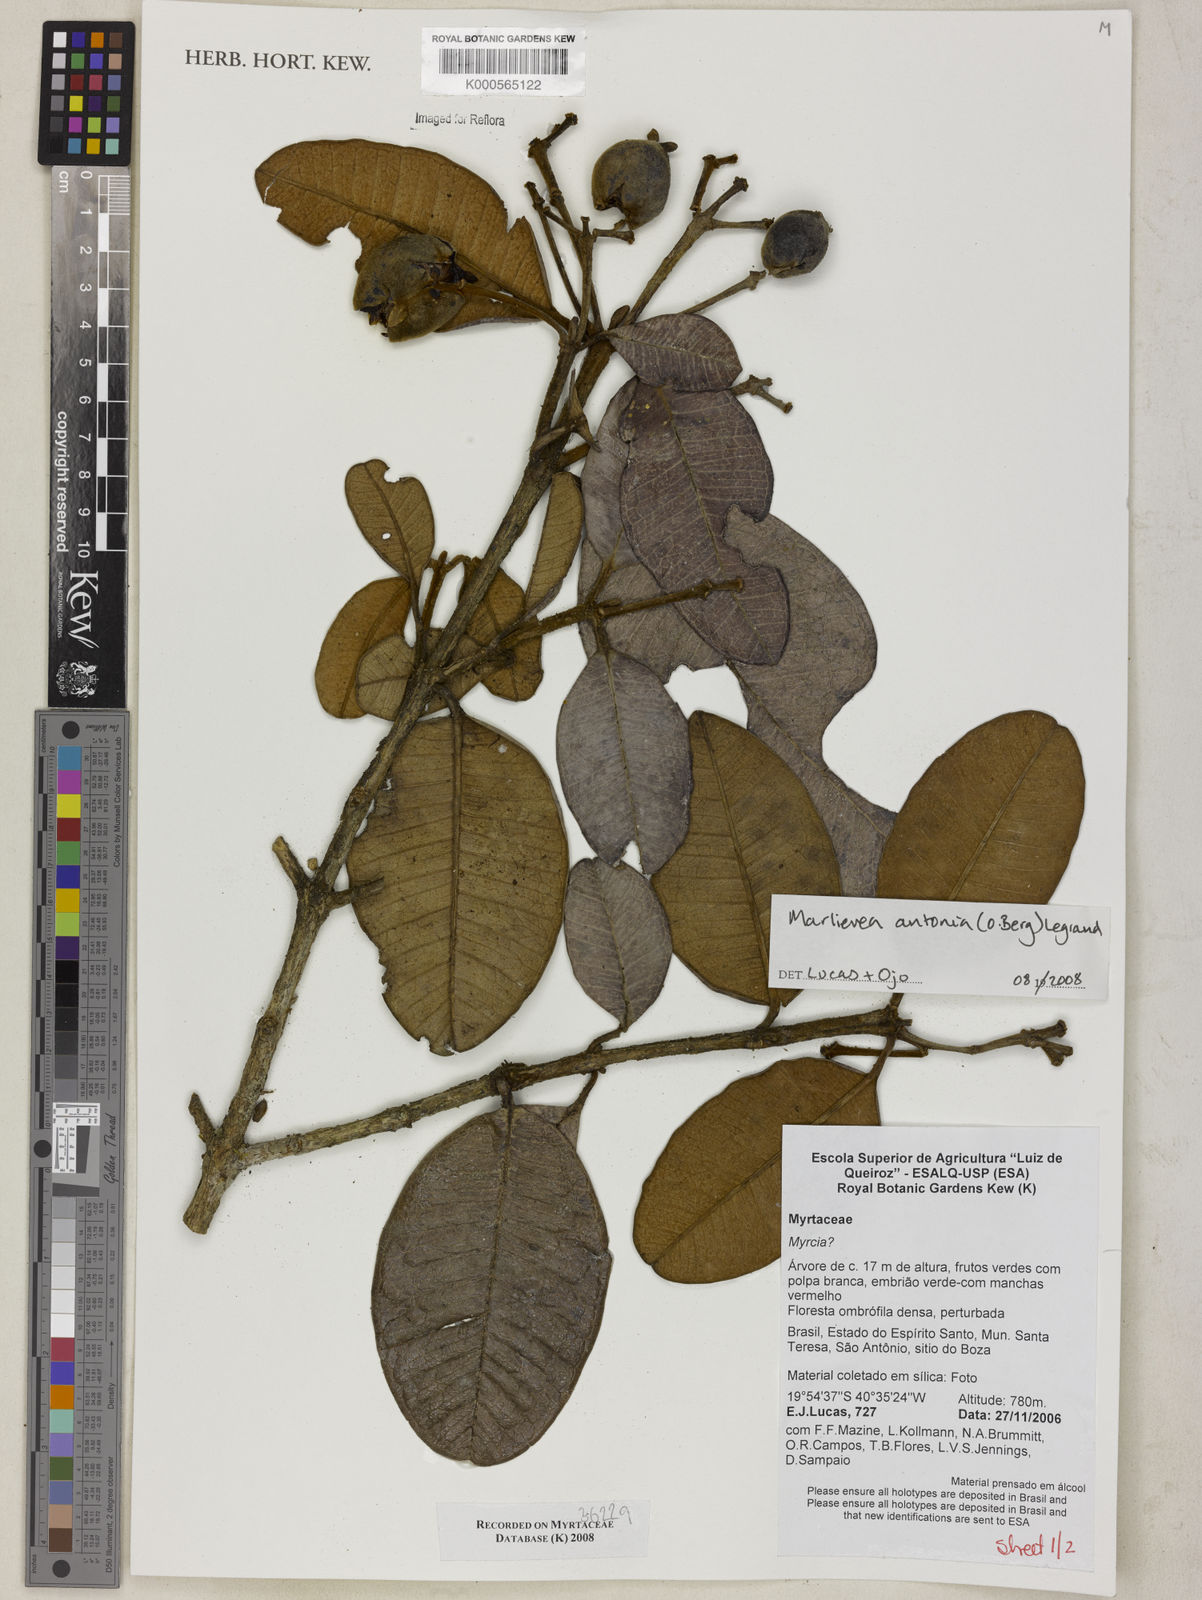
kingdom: Plantae
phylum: Tracheophyta
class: Magnoliopsida
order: Myrtales
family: Myrtaceae
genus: Marlierea
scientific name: Marlierea
